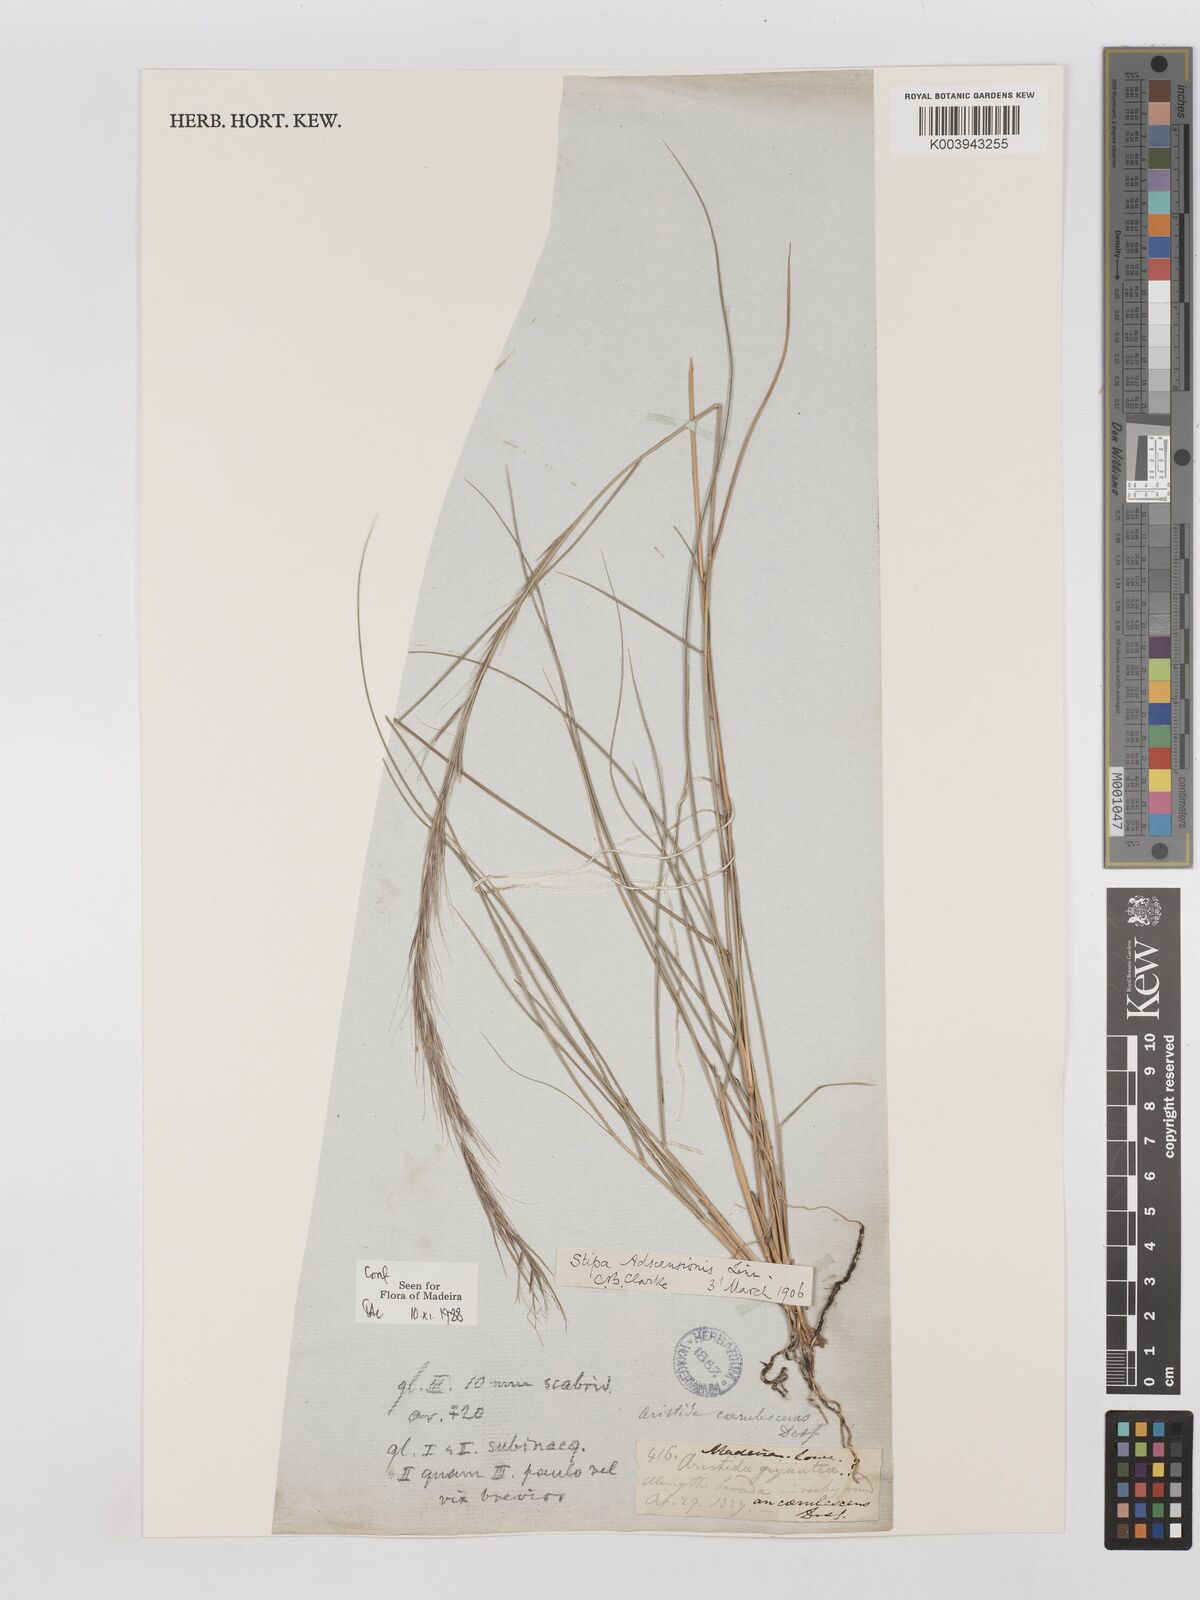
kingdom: Plantae
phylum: Tracheophyta
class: Liliopsida
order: Poales
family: Poaceae
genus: Aristida
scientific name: Aristida adscensionis
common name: Sixweeks threeawn
